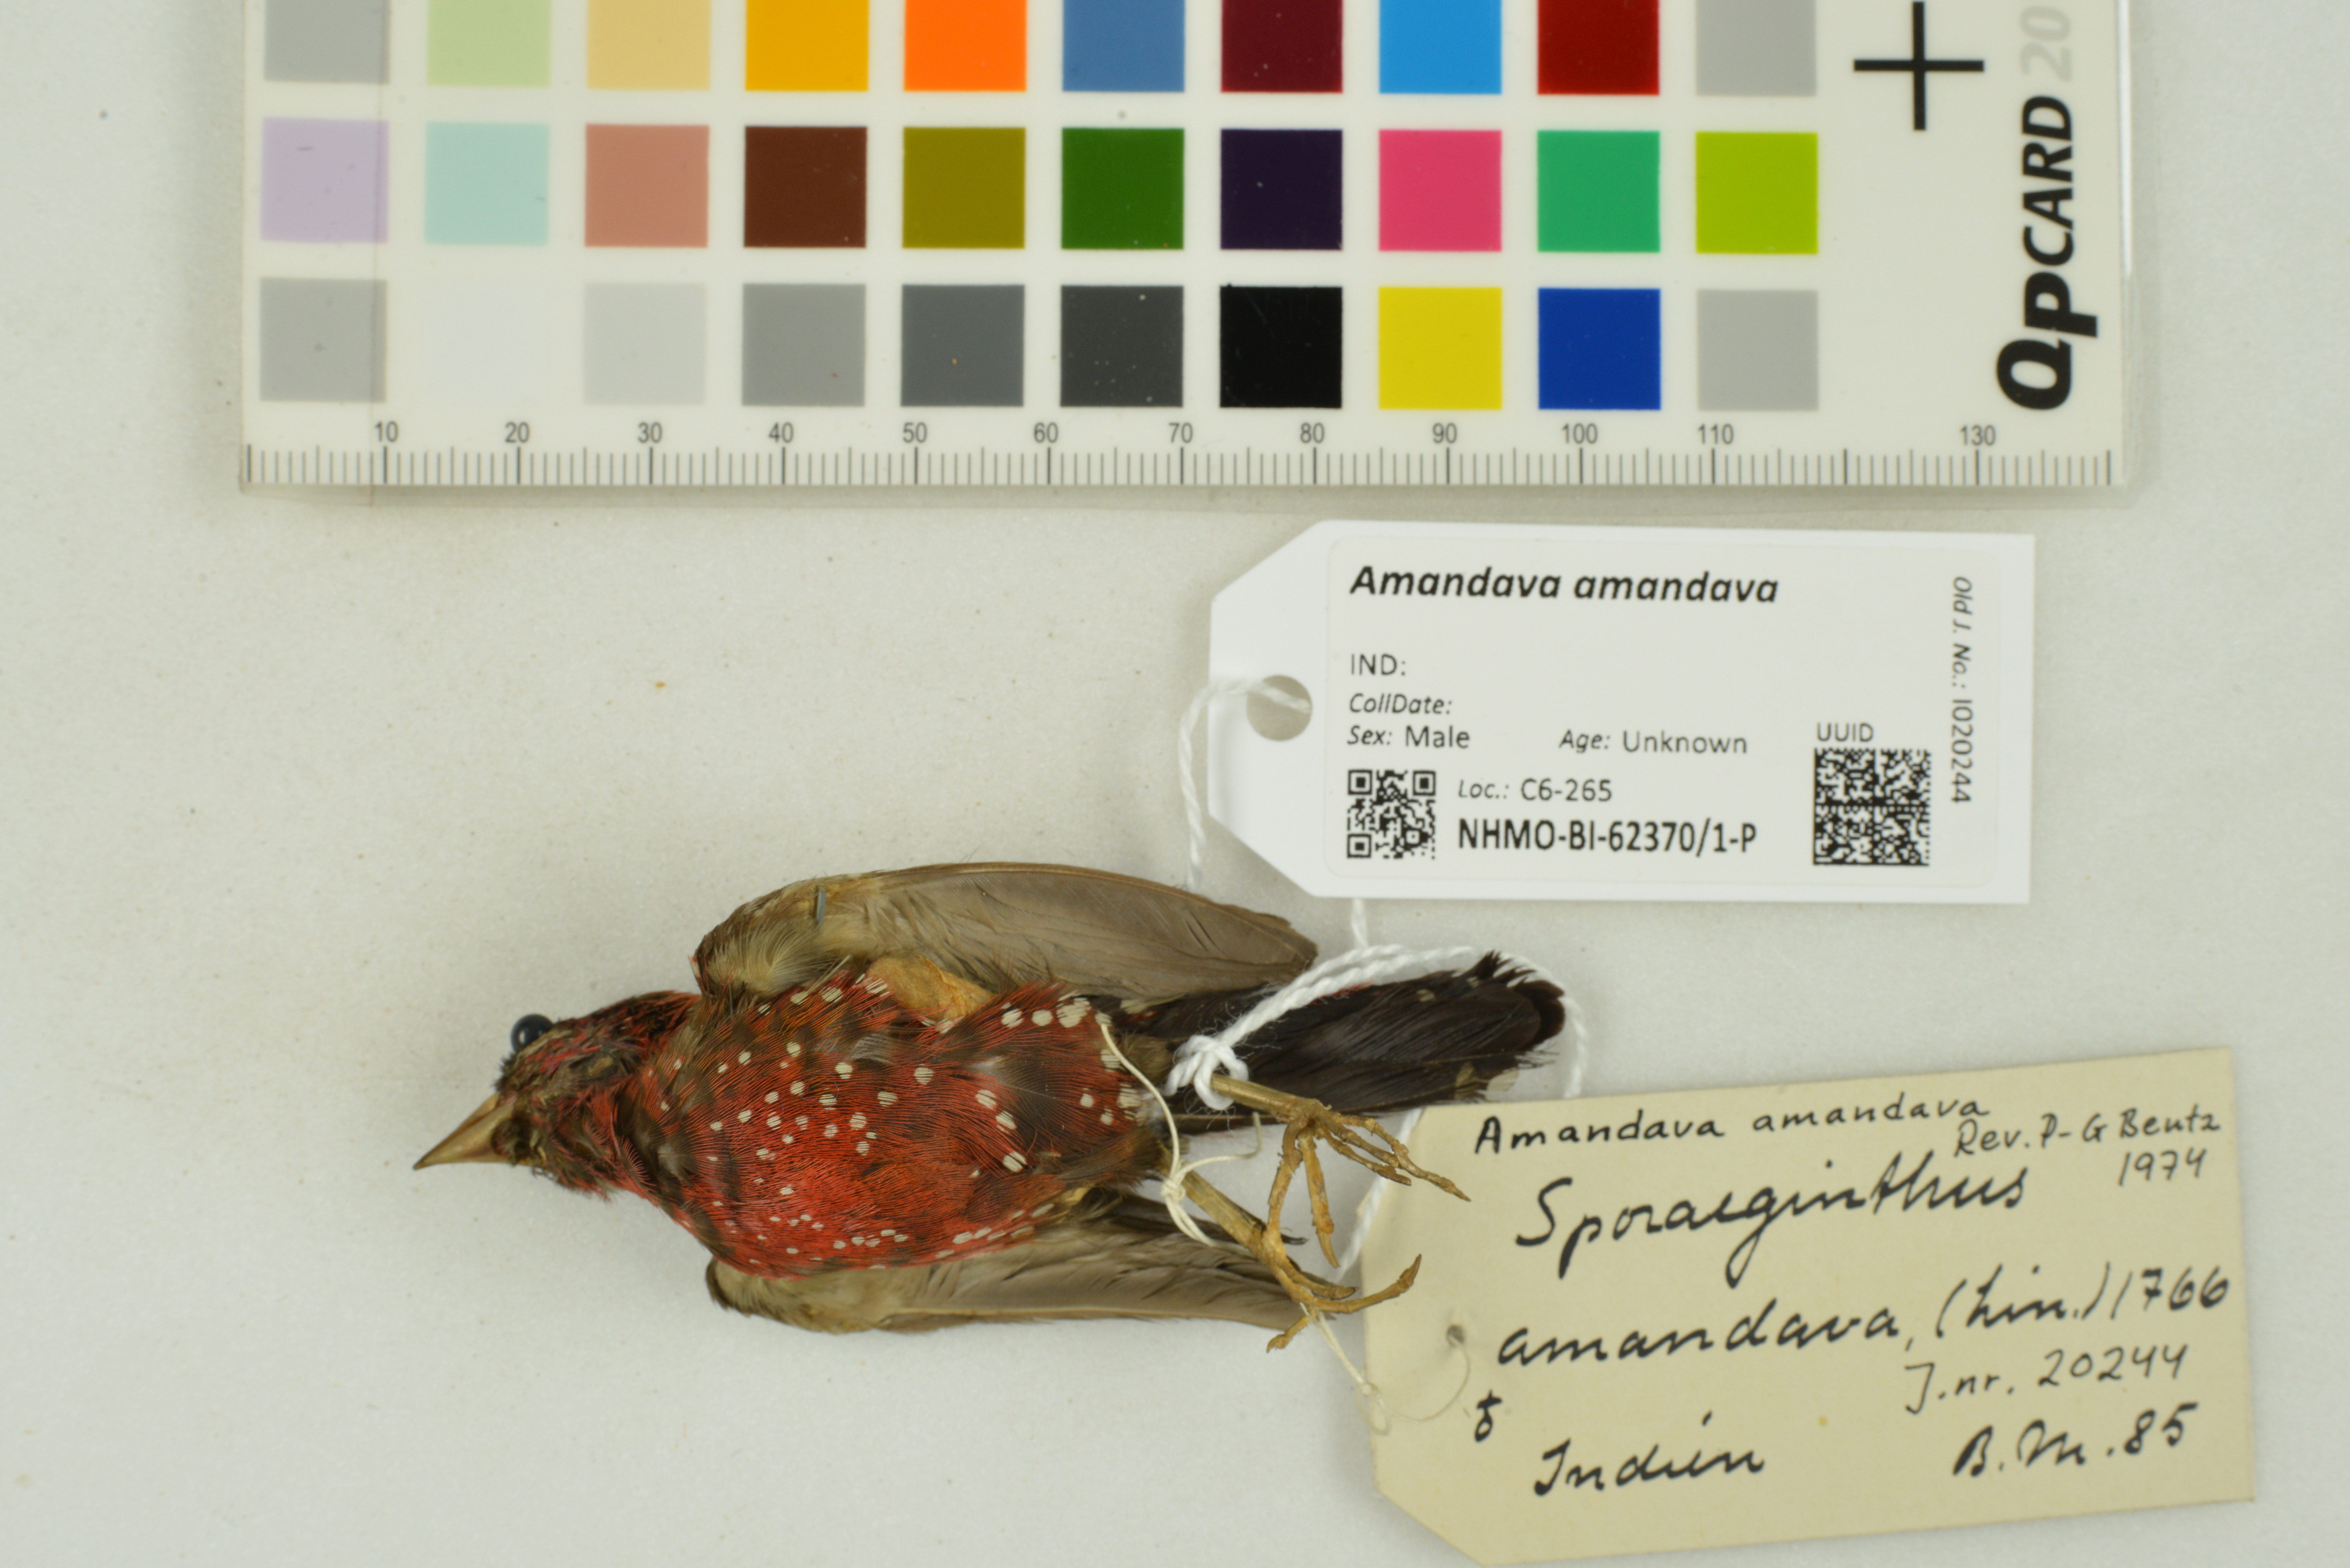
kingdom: Animalia
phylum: Chordata
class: Aves
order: Passeriformes
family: Estrildidae
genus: Amandava
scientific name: Amandava amandava
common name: Red avadavat
